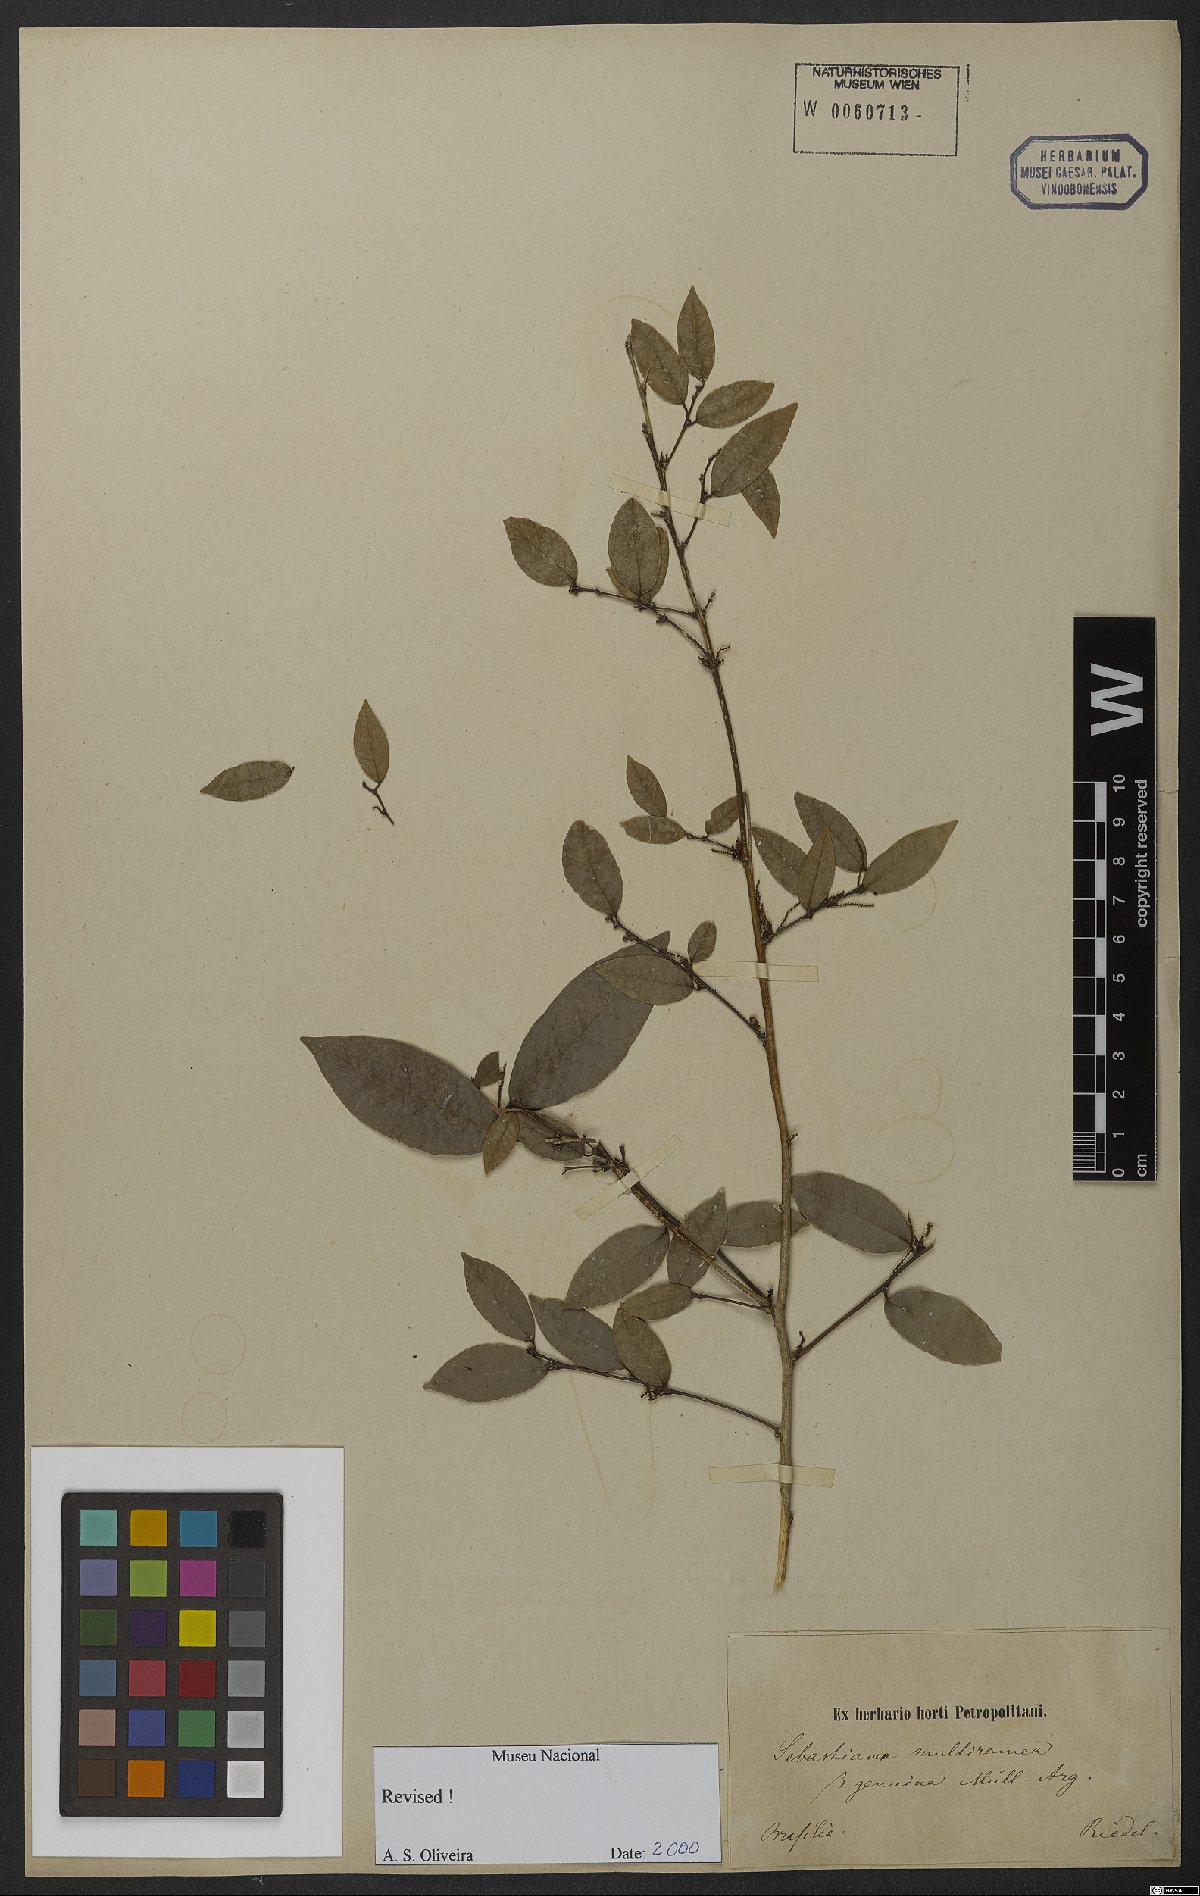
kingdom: Plantae
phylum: Tracheophyta
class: Magnoliopsida
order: Malpighiales
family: Euphorbiaceae
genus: Gymnanthes
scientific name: Gymnanthes glabrata
